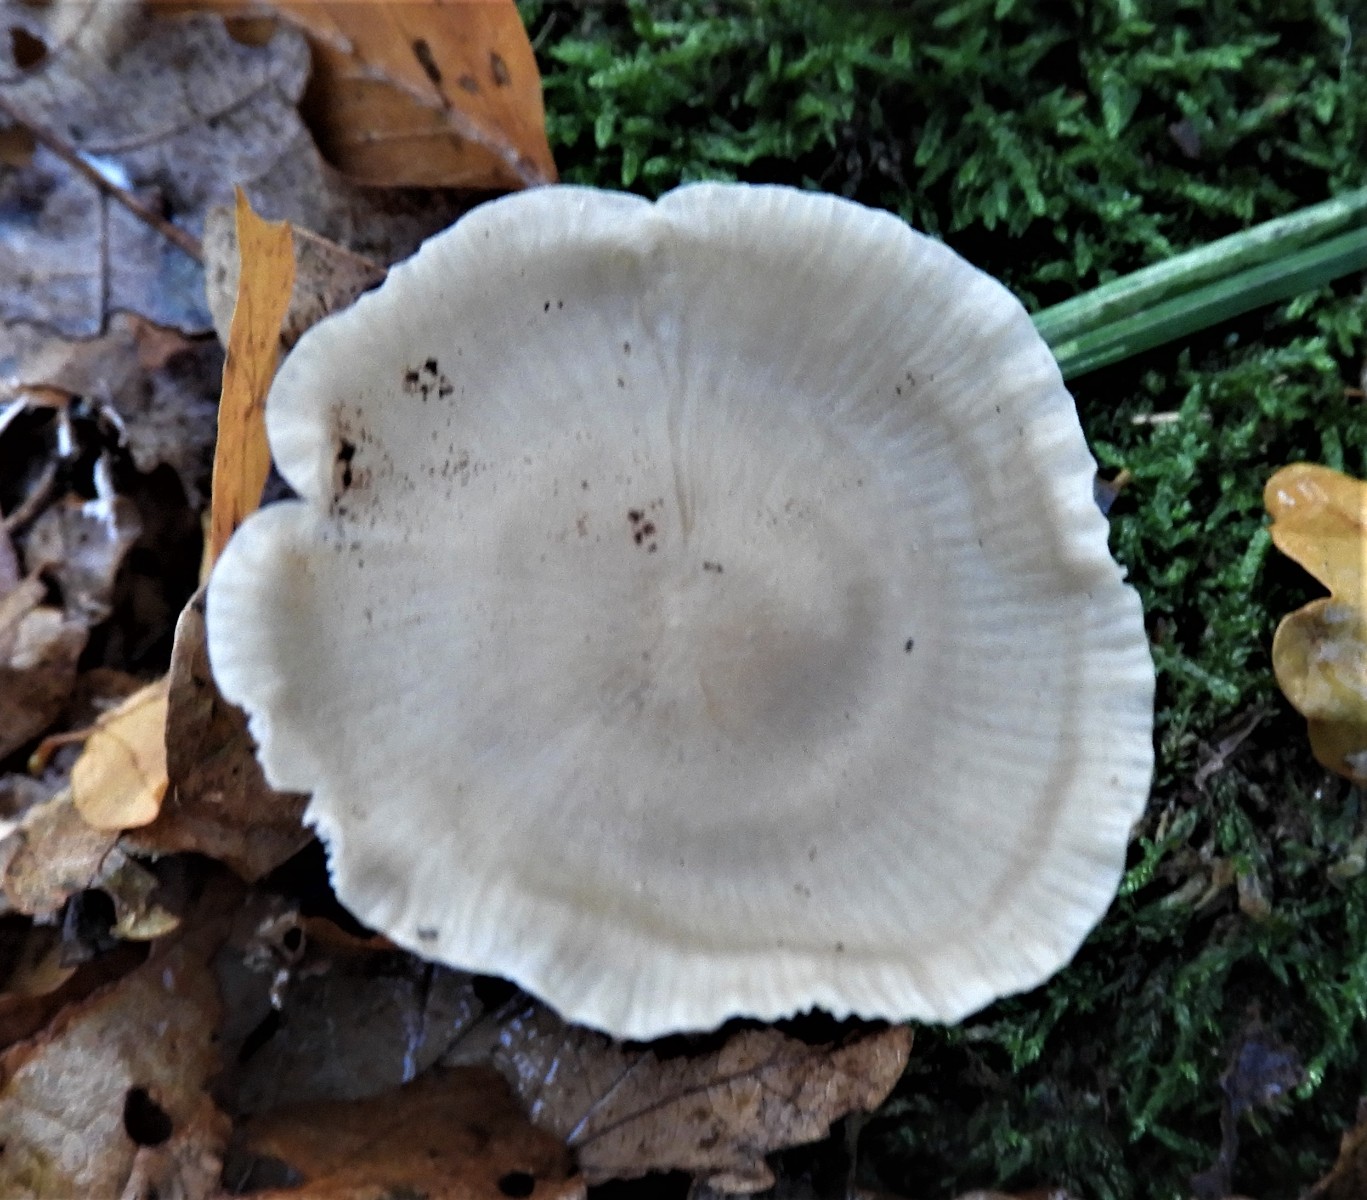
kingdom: Fungi
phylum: Basidiomycota
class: Agaricomycetes
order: Agaricales
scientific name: Agaricales
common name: champignonordenen
